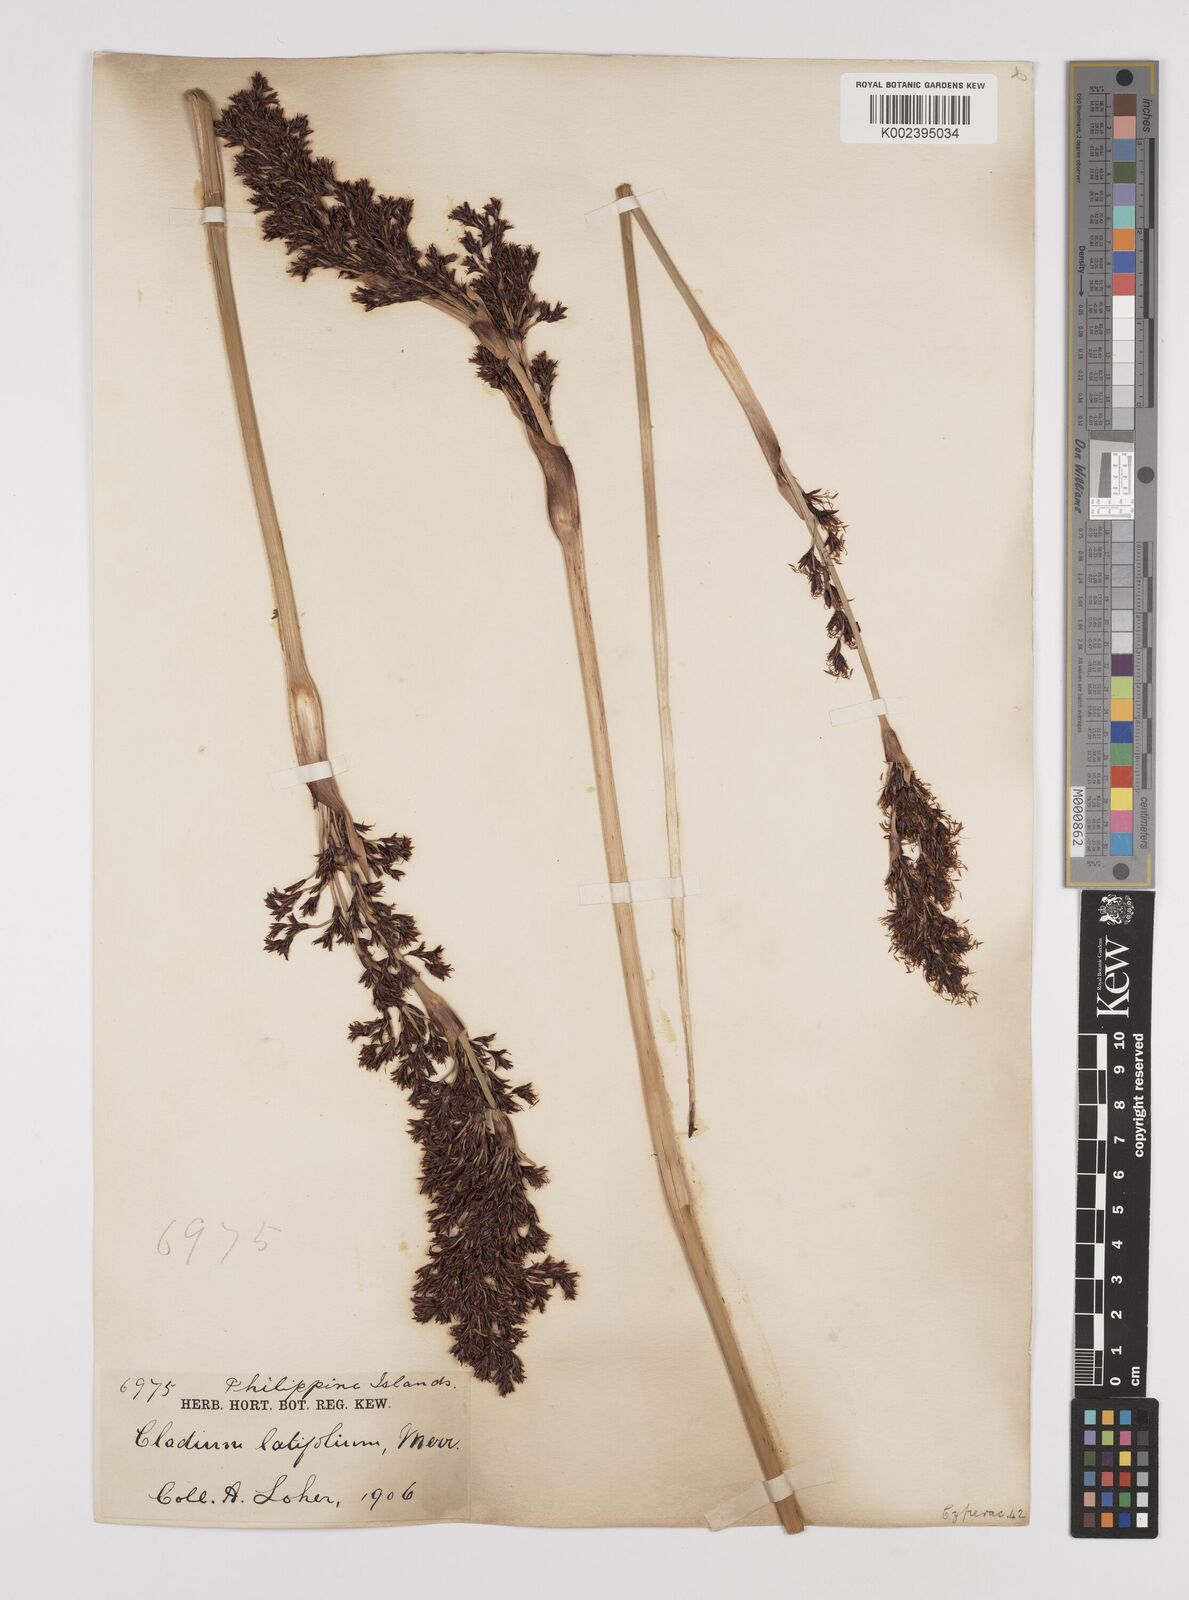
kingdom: Plantae
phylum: Tracheophyta
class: Liliopsida
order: Poales
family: Cyperaceae
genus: Machaerina
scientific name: Machaerina sinclairii
